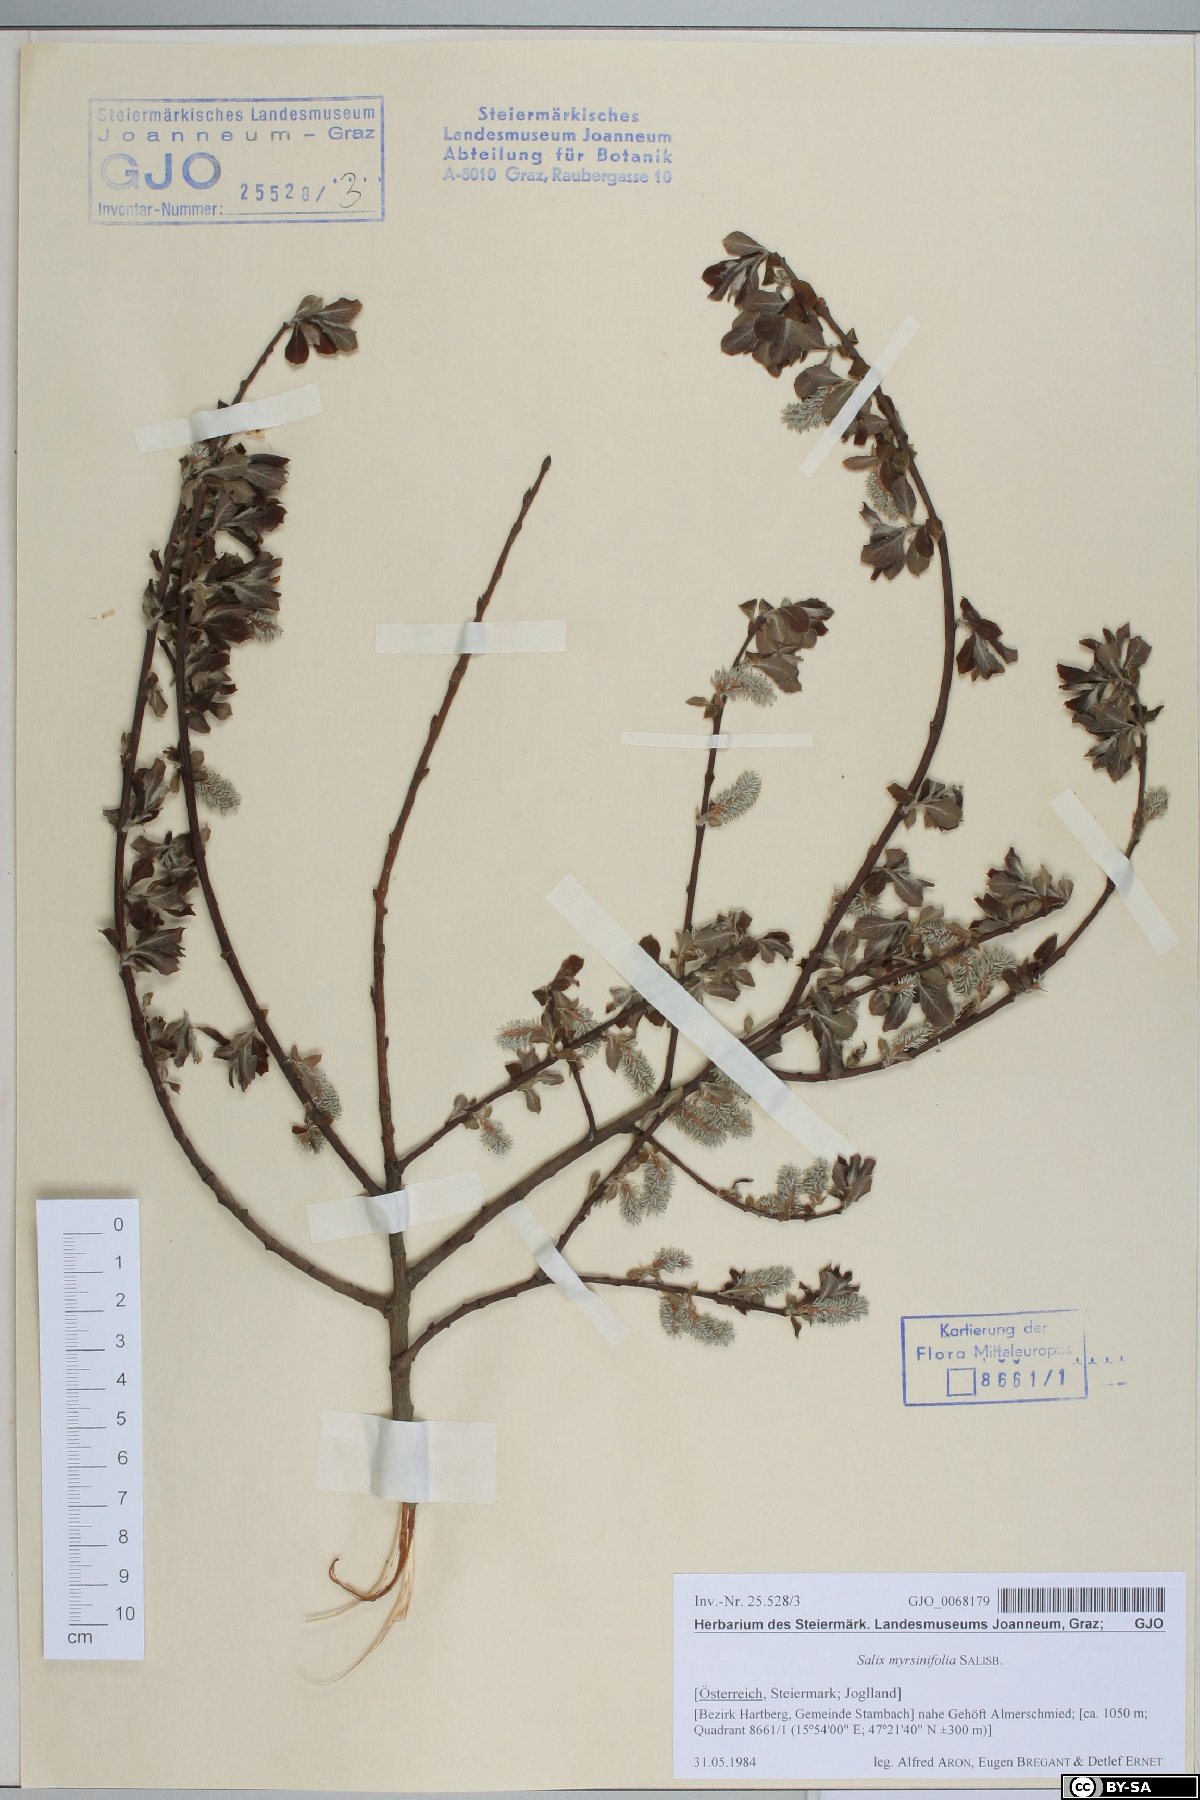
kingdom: Plantae
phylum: Tracheophyta
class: Magnoliopsida
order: Malpighiales
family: Salicaceae
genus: Salix
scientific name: Salix myrsinifolia
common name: Dark-leaved willow
